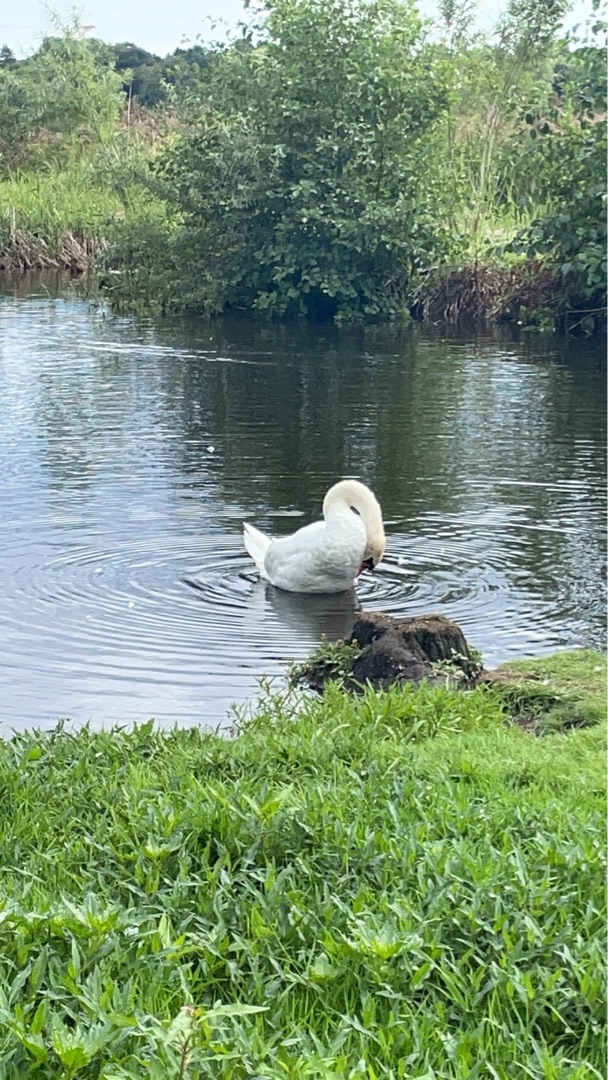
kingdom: Animalia
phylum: Chordata
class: Aves
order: Anseriformes
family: Anatidae
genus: Cygnus
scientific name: Cygnus olor
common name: Knopsvane
